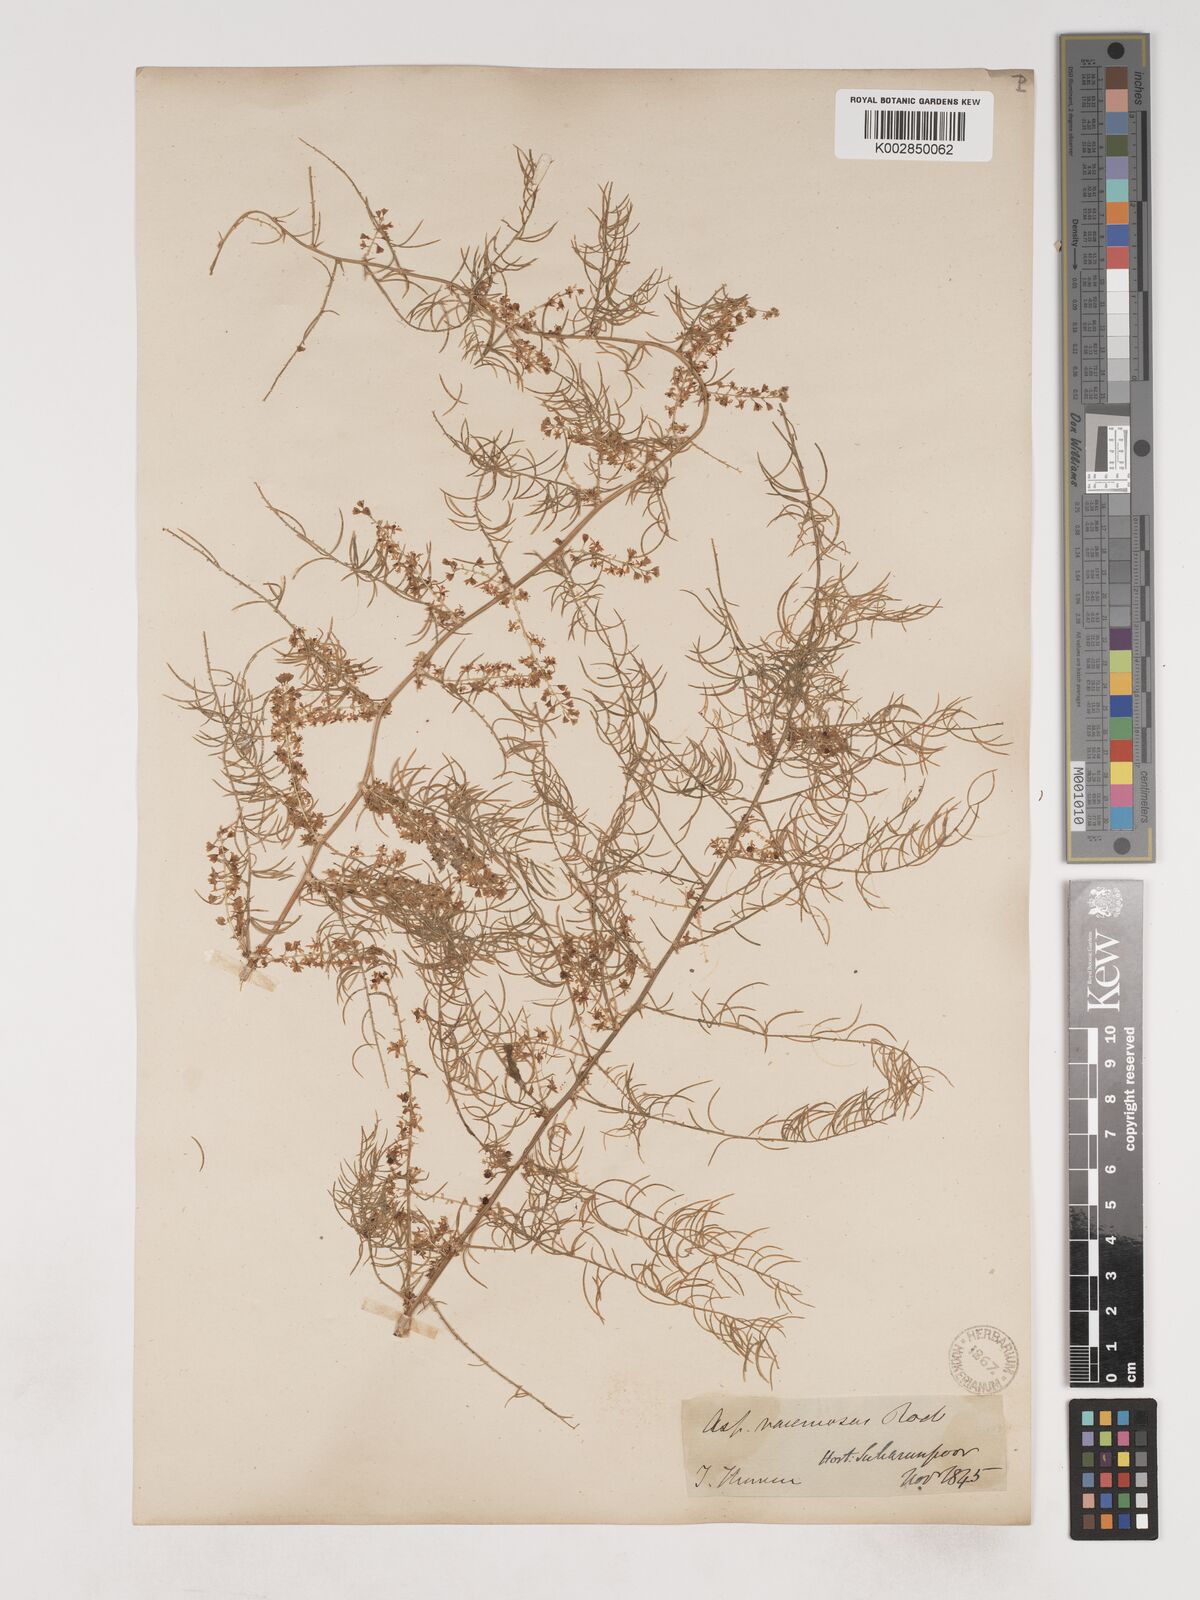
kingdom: Plantae
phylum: Tracheophyta
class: Liliopsida
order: Asparagales
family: Asparagaceae
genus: Asparagus
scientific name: Asparagus racemosus
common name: Asparagus-fern
